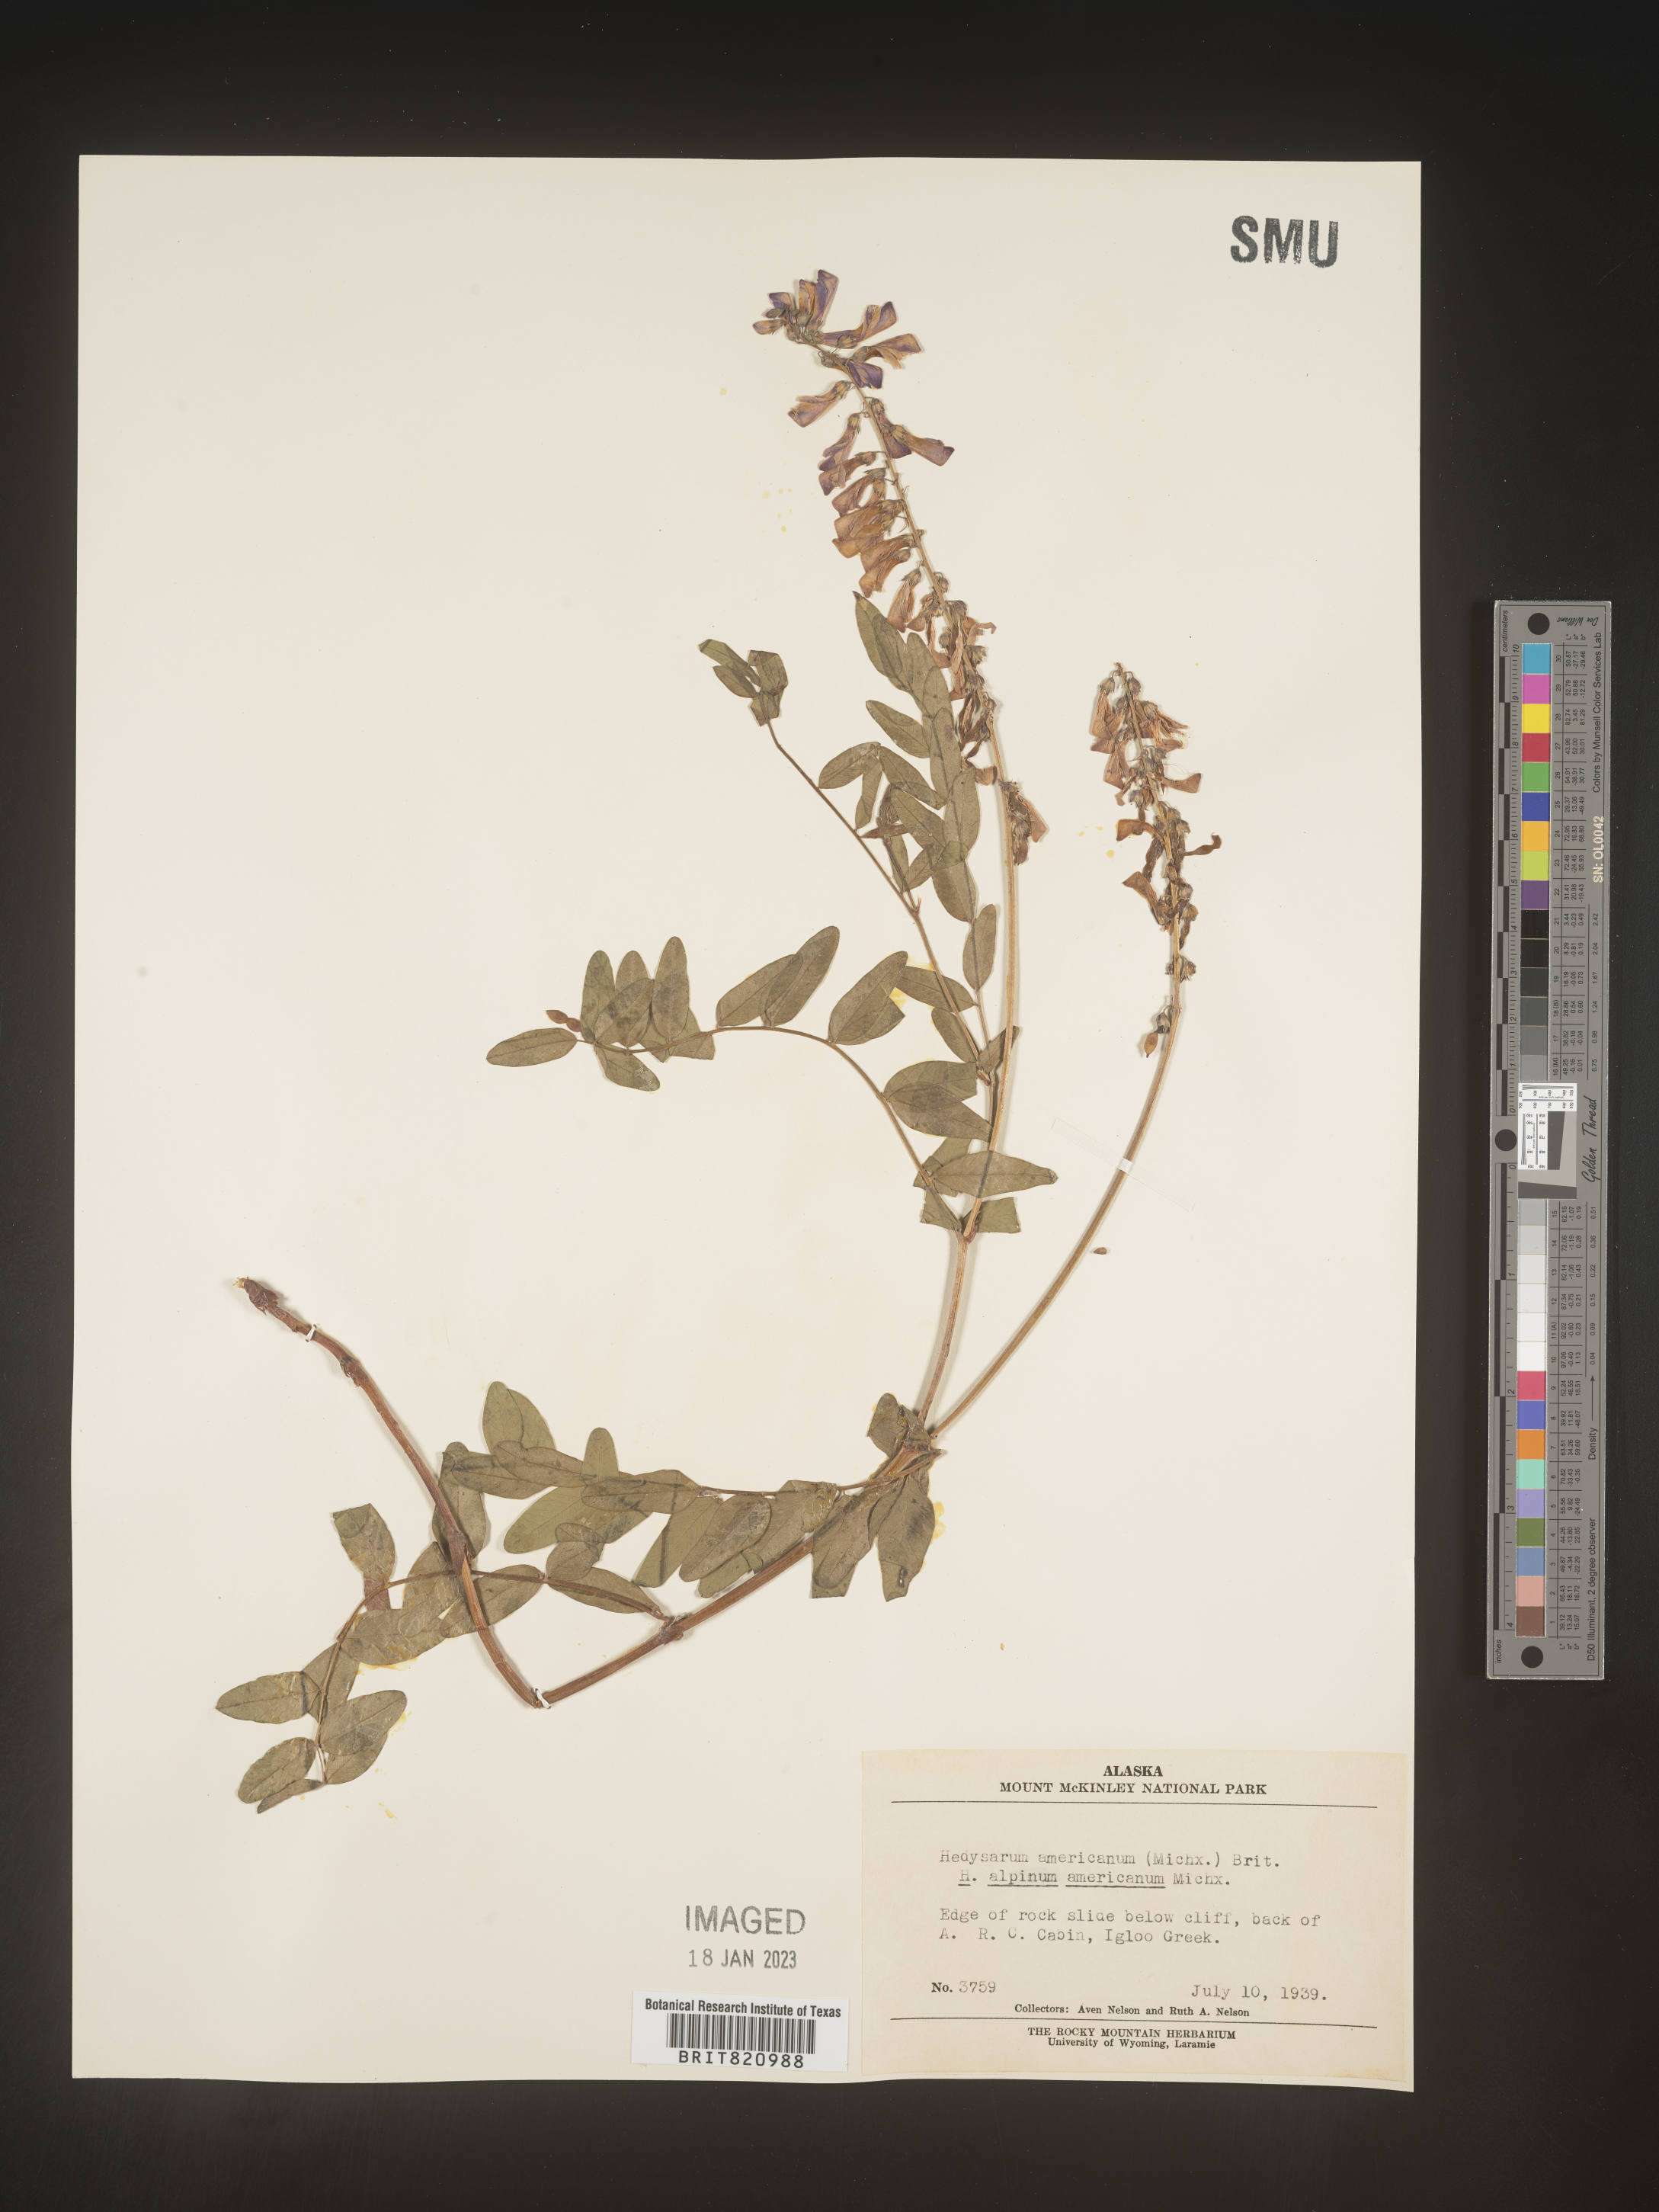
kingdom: Plantae
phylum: Tracheophyta
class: Magnoliopsida
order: Fabales
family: Fabaceae
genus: Hedysarum
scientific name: Hedysarum alpinum
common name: Alpine sweet-vetch
